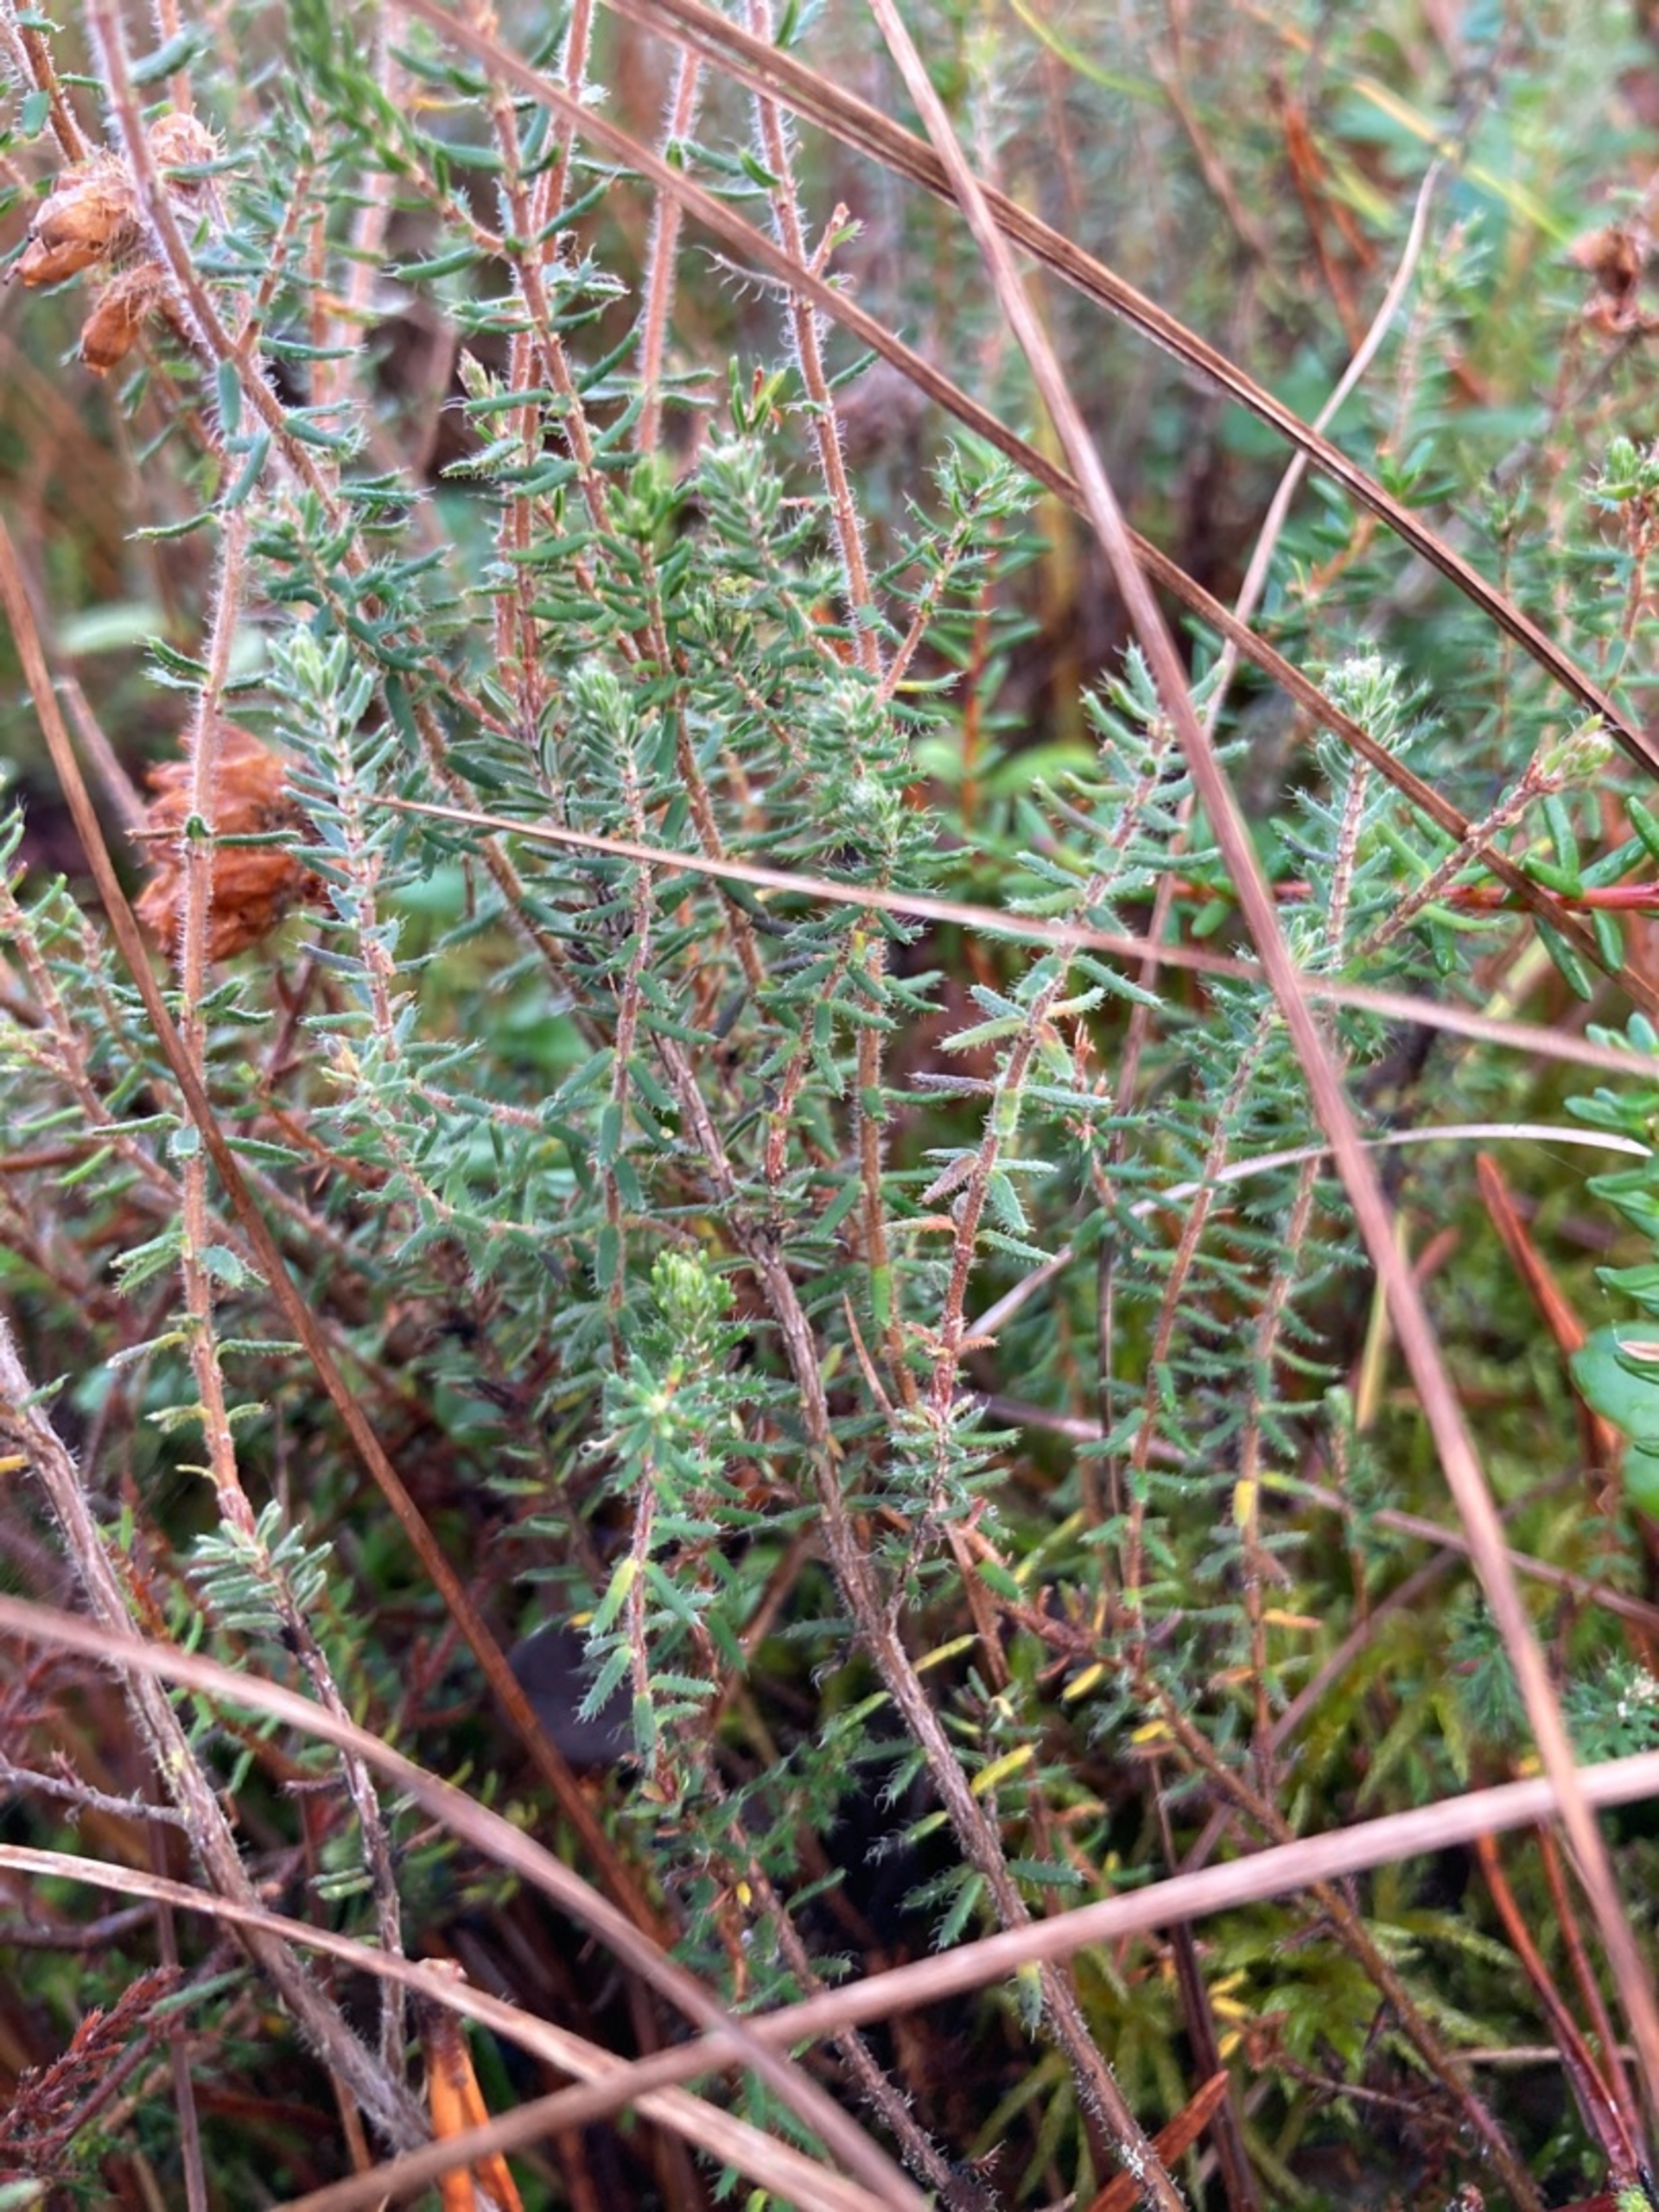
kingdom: Plantae
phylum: Tracheophyta
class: Magnoliopsida
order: Ericales
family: Ericaceae
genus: Erica
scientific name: Erica tetralix
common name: Klokkelyng
